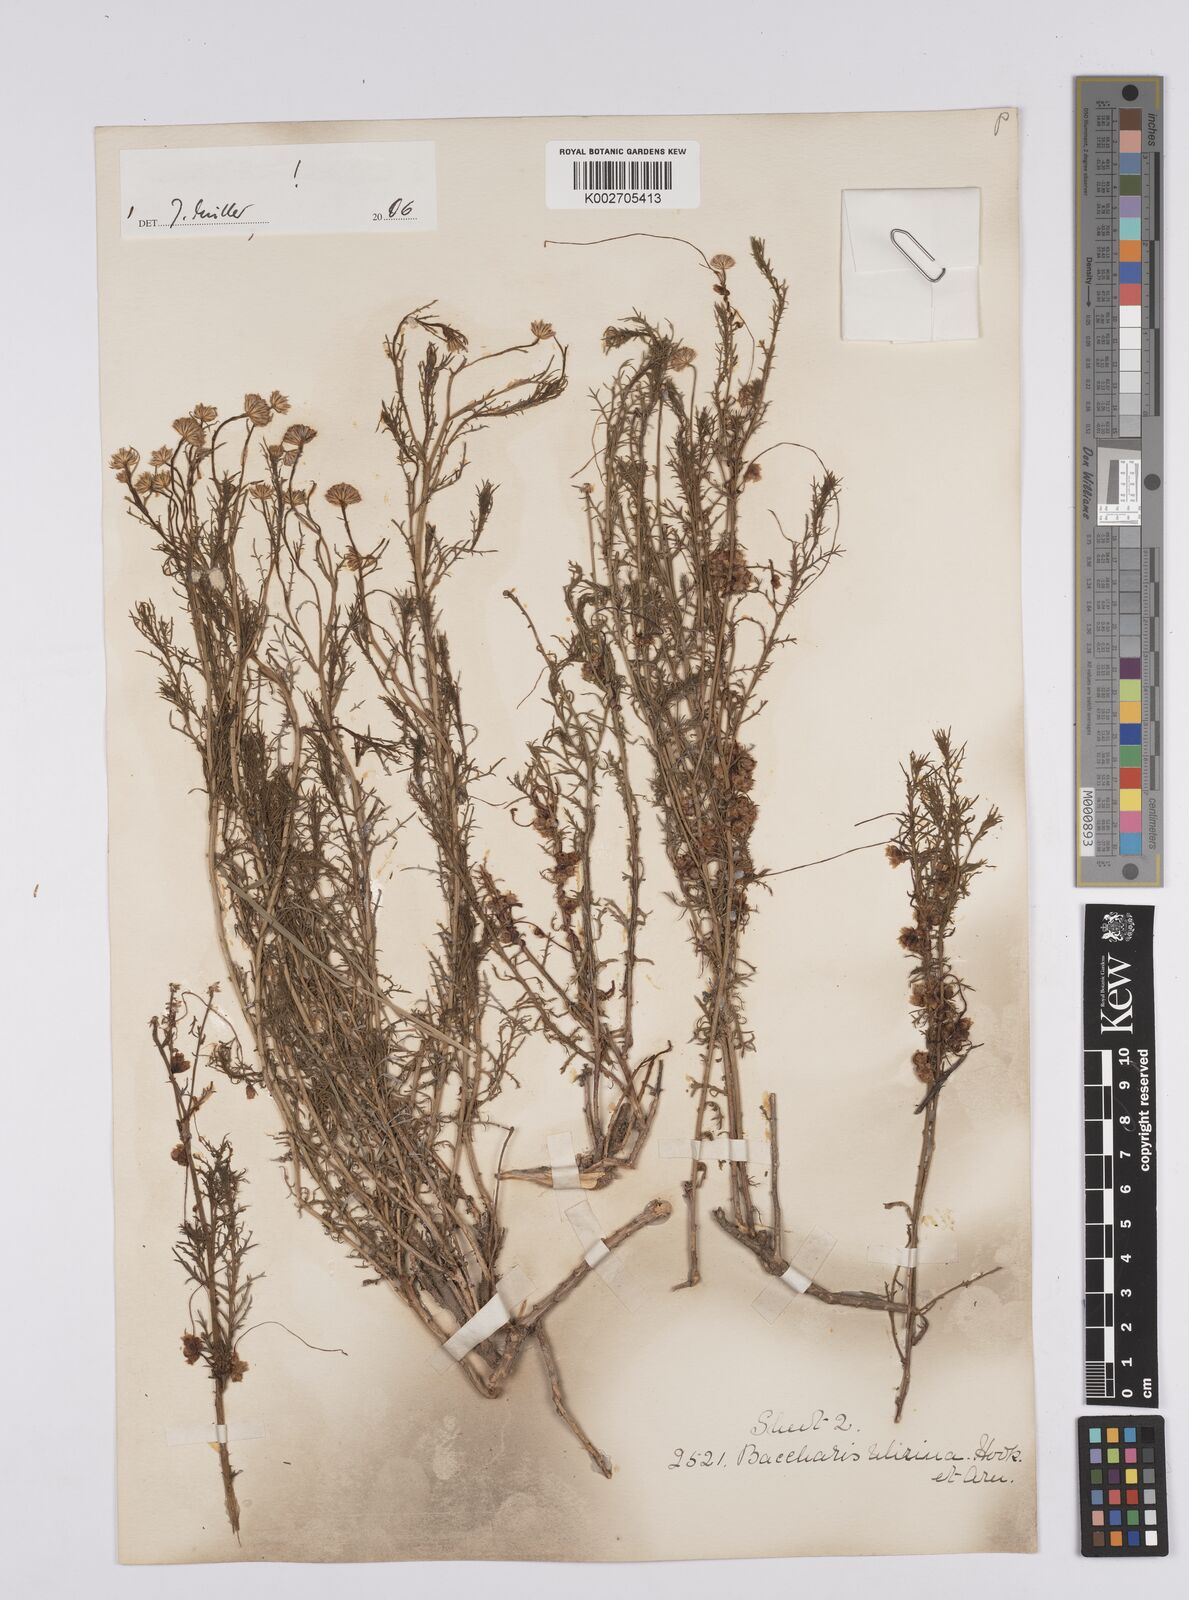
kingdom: Plantae
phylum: Tracheophyta
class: Magnoliopsida
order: Asterales
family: Asteraceae
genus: Baccharis
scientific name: Baccharis ulicina
